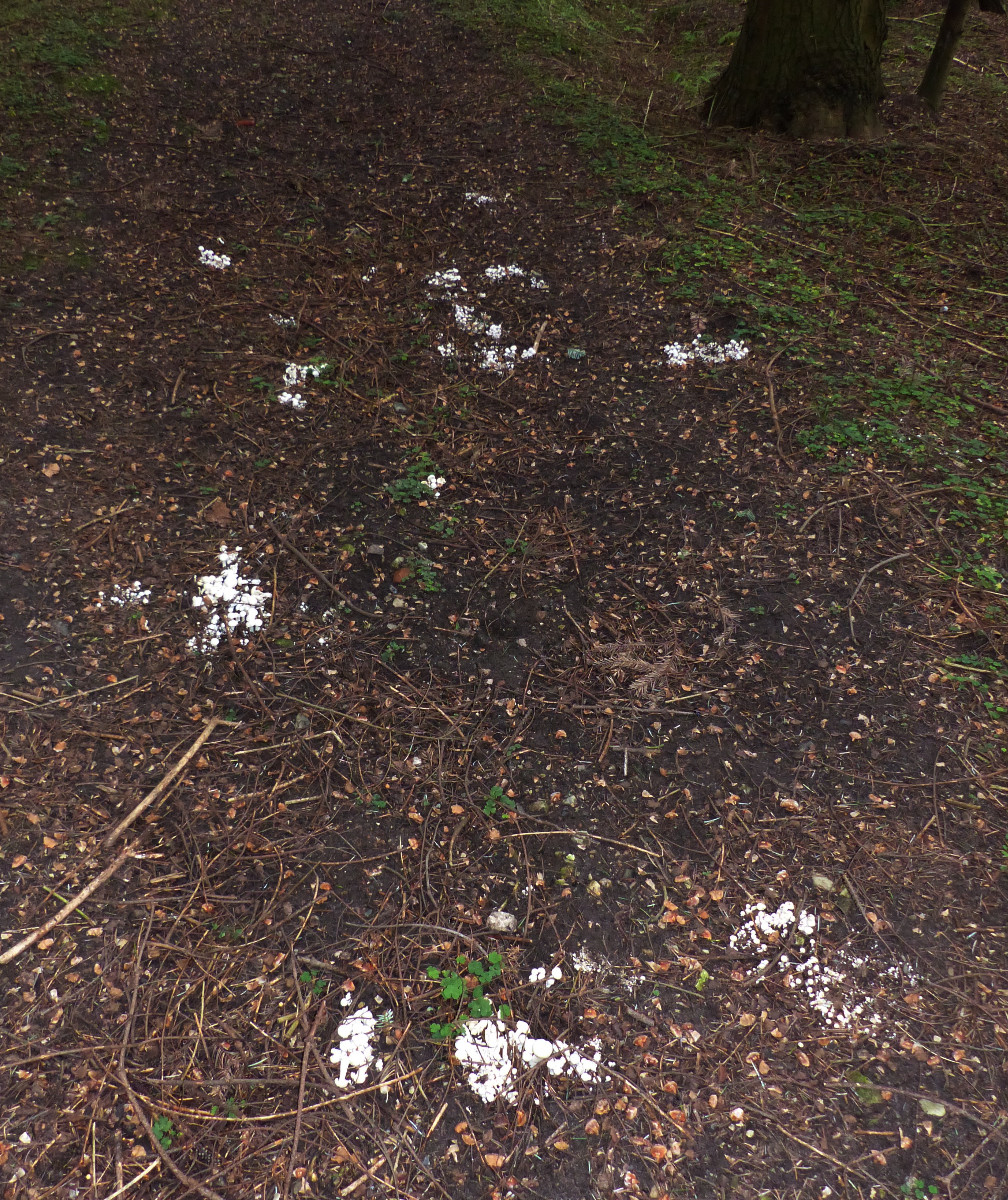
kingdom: Fungi
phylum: Basidiomycota
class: Agaricomycetes
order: Agaricales
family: Tricholomataceae
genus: Leucocybe
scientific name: Leucocybe connata
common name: knippe-tragthat
